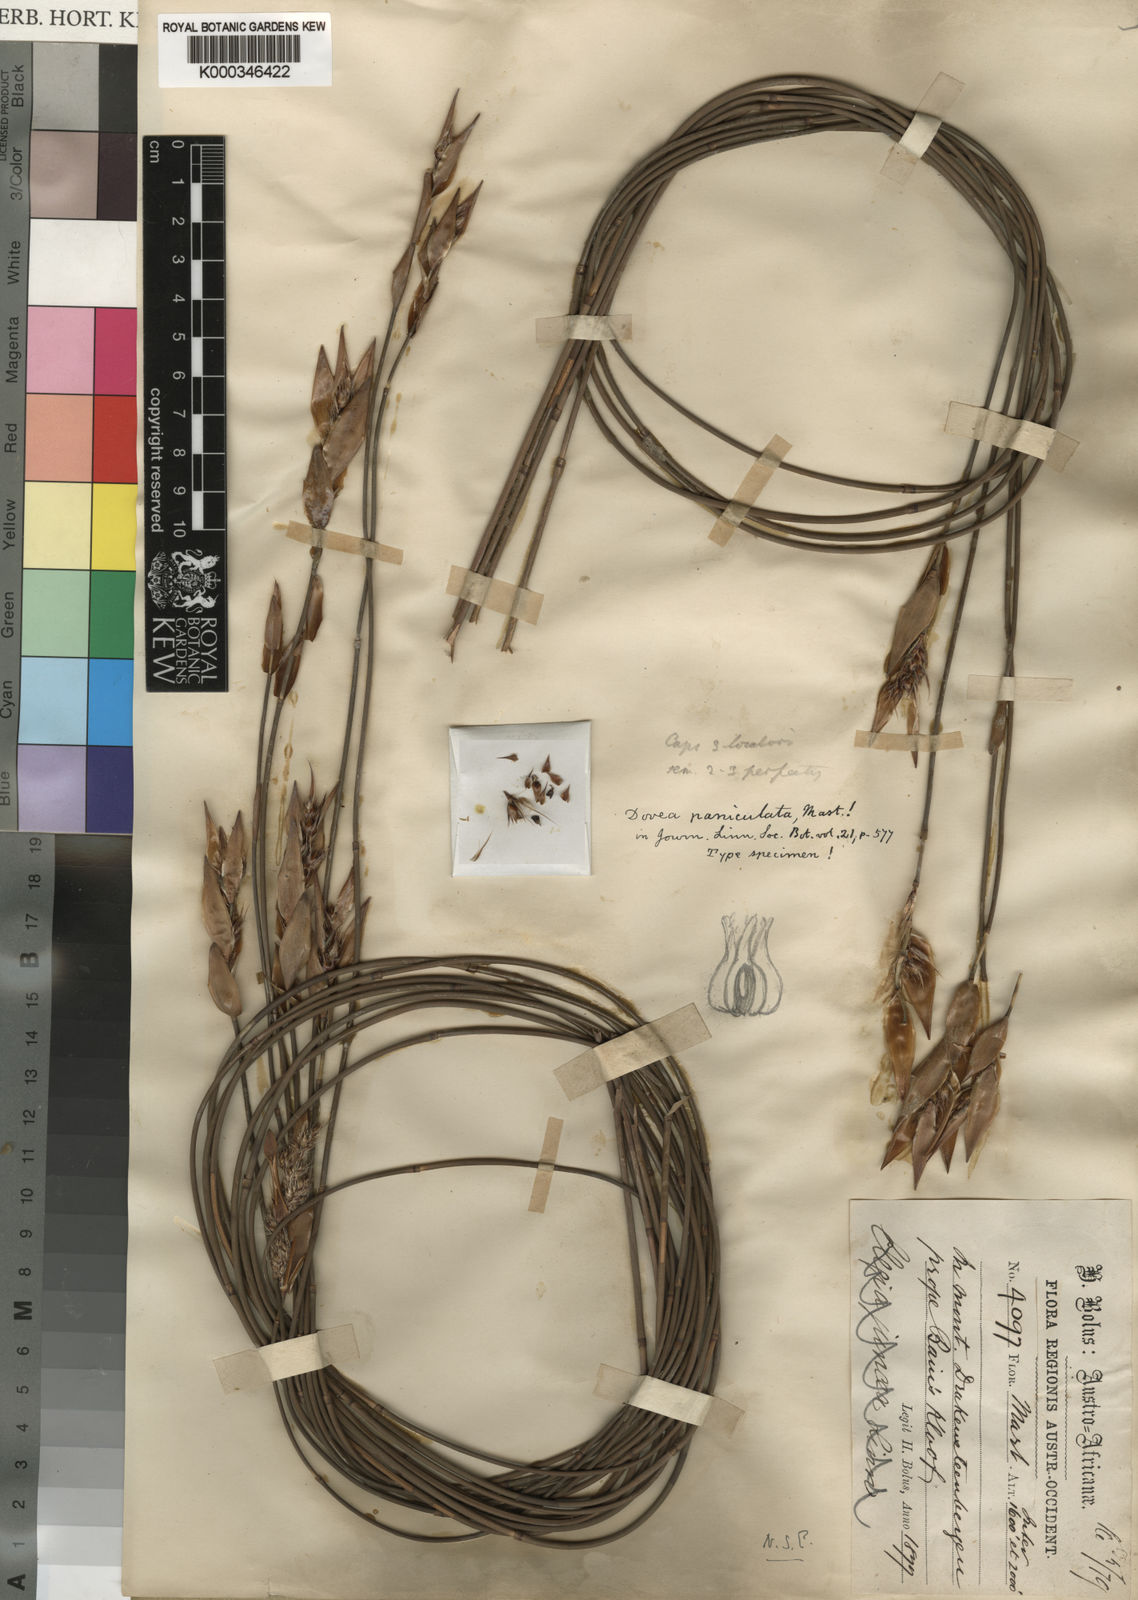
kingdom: Plantae
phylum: Tracheophyta
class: Liliopsida
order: Poales
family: Restionaceae
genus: Askidiosperma
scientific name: Askidiosperma paniculatum
